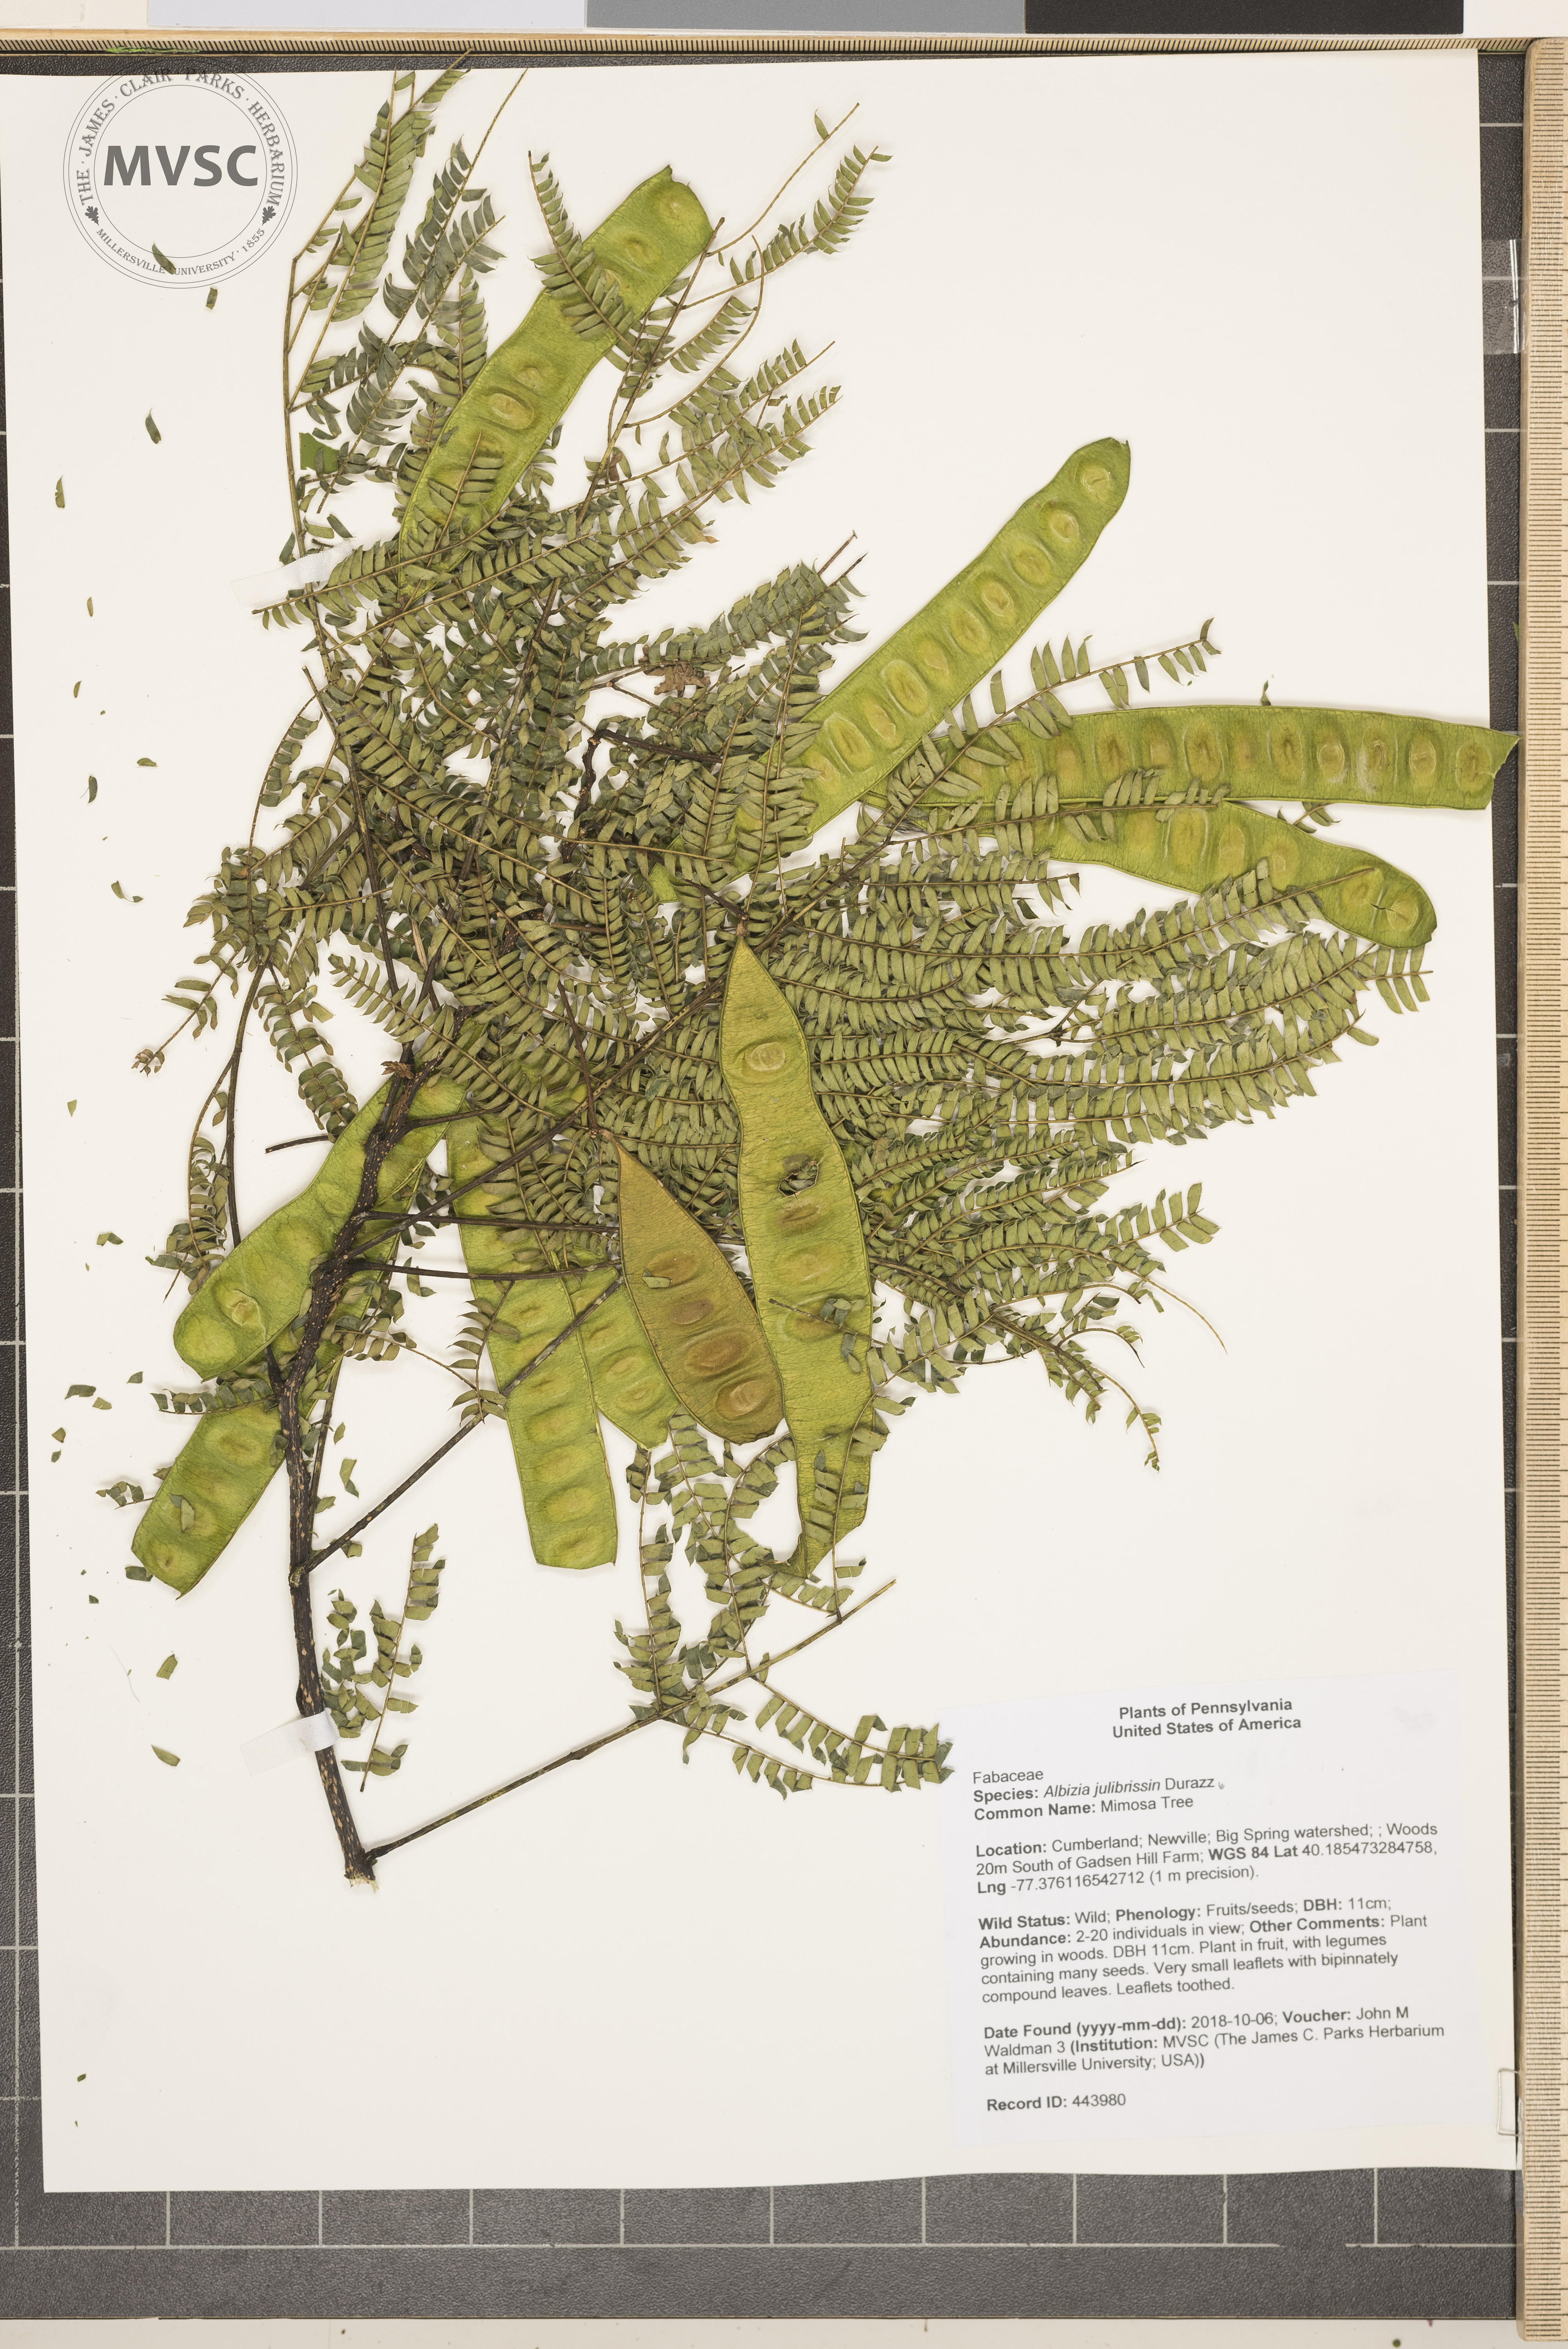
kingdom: Plantae
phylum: Tracheophyta
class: Magnoliopsida
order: Fabales
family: Fabaceae
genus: Albizia
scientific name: Albizia julibrissin
